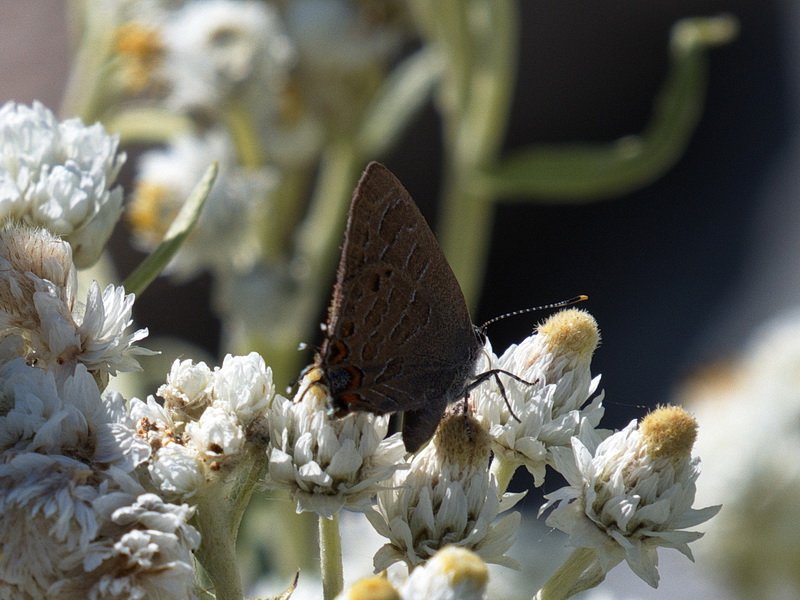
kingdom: Animalia
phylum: Arthropoda
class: Insecta
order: Lepidoptera
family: Lycaenidae
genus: Satyrium
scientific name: Satyrium liparops
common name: Striped Hairstreak
